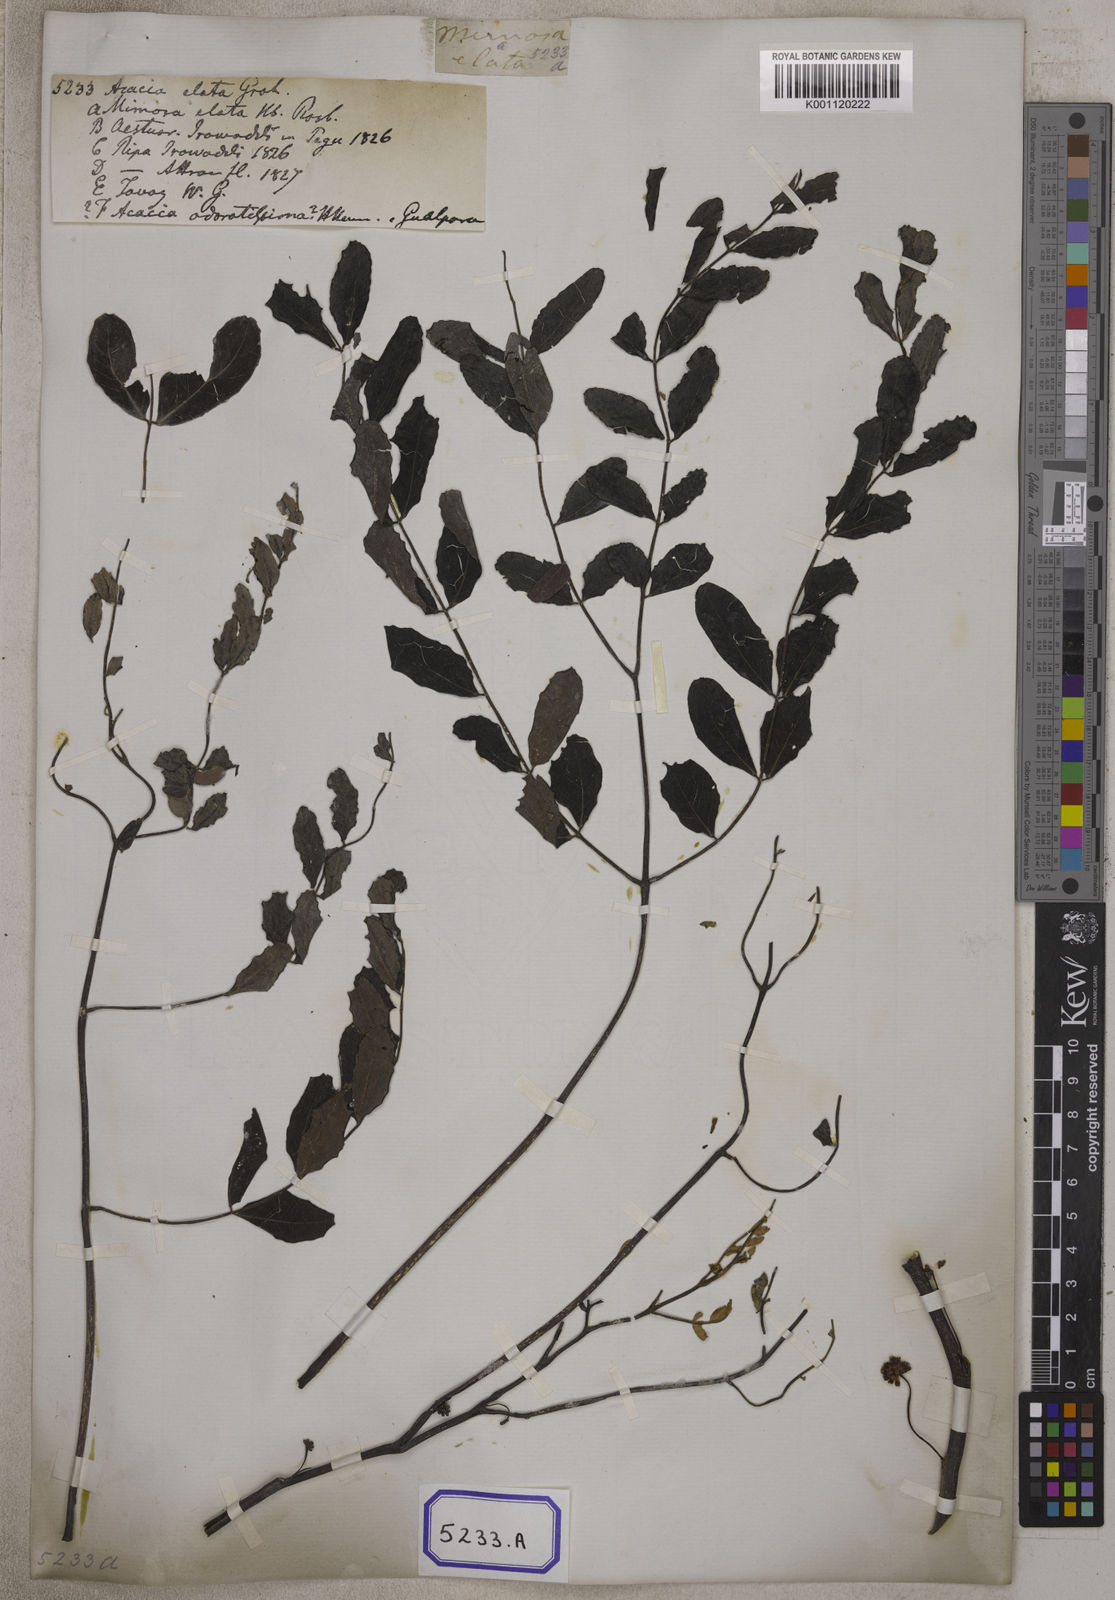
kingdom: Plantae
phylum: Tracheophyta
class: Magnoliopsida
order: Fabales
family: Fabaceae
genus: Acacia
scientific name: Acacia
